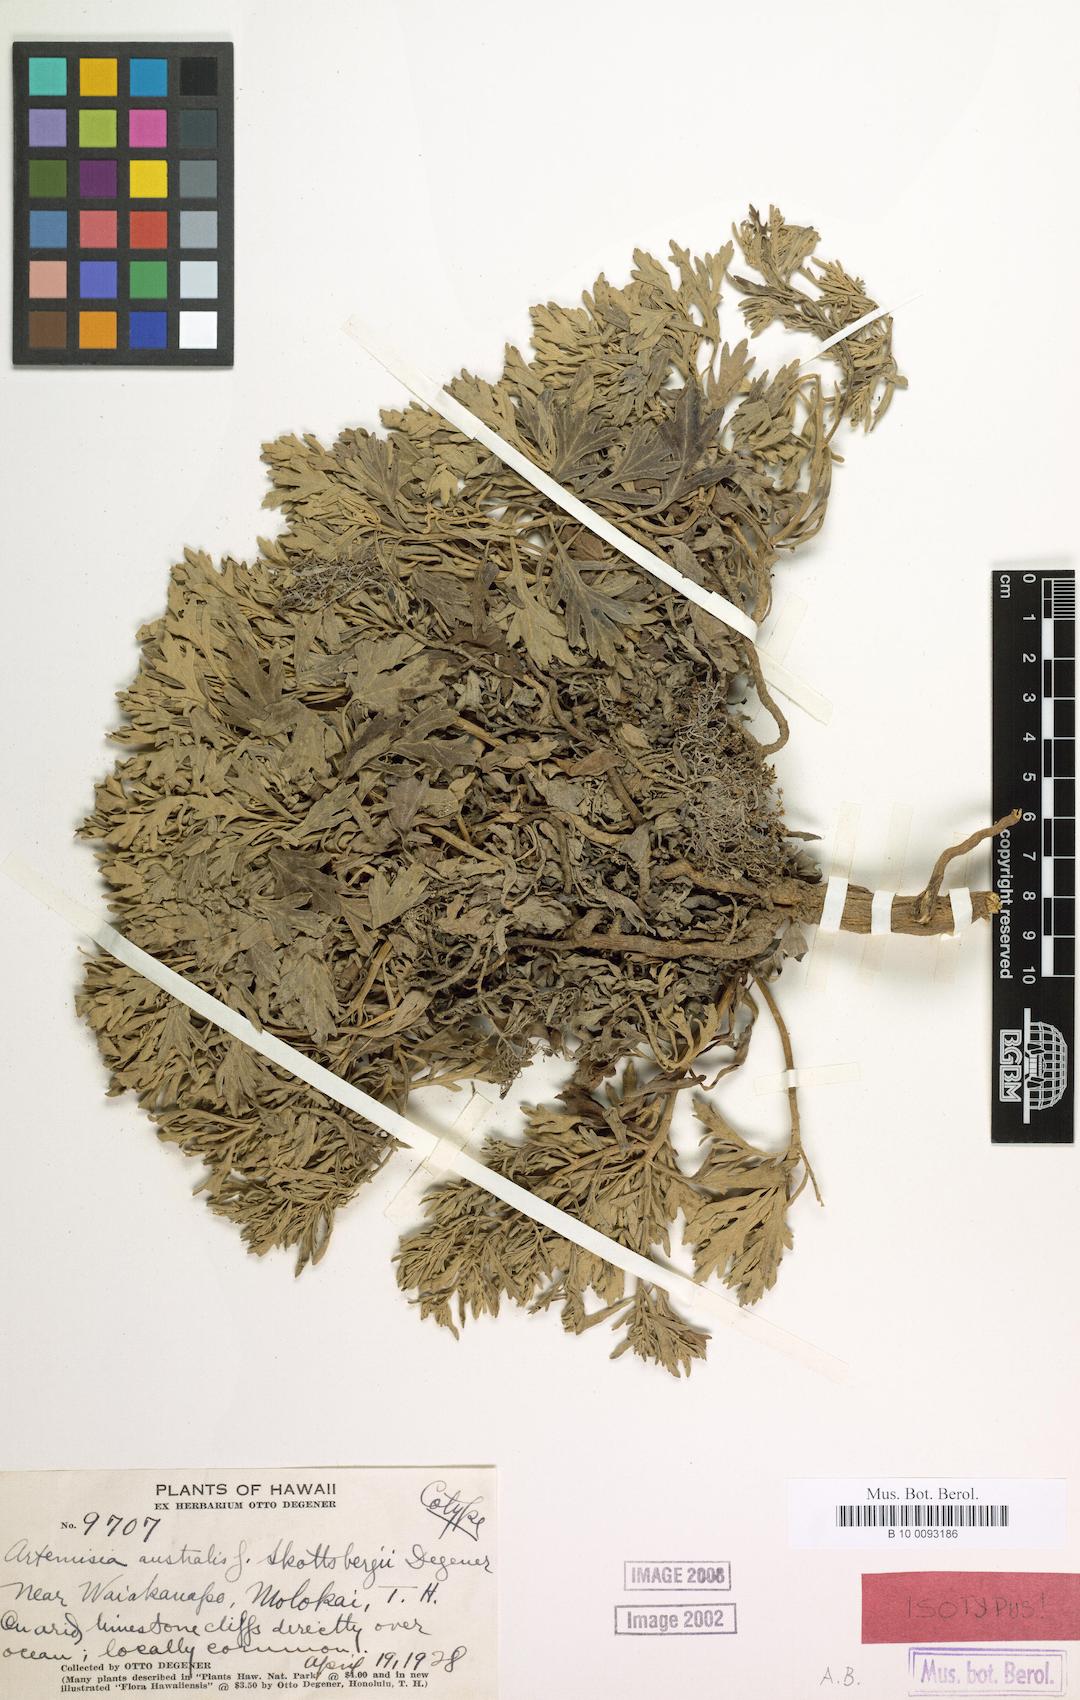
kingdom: Plantae
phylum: Tracheophyta
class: Magnoliopsida
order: Asterales
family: Asteraceae
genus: Artemisia
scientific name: Artemisia australis
